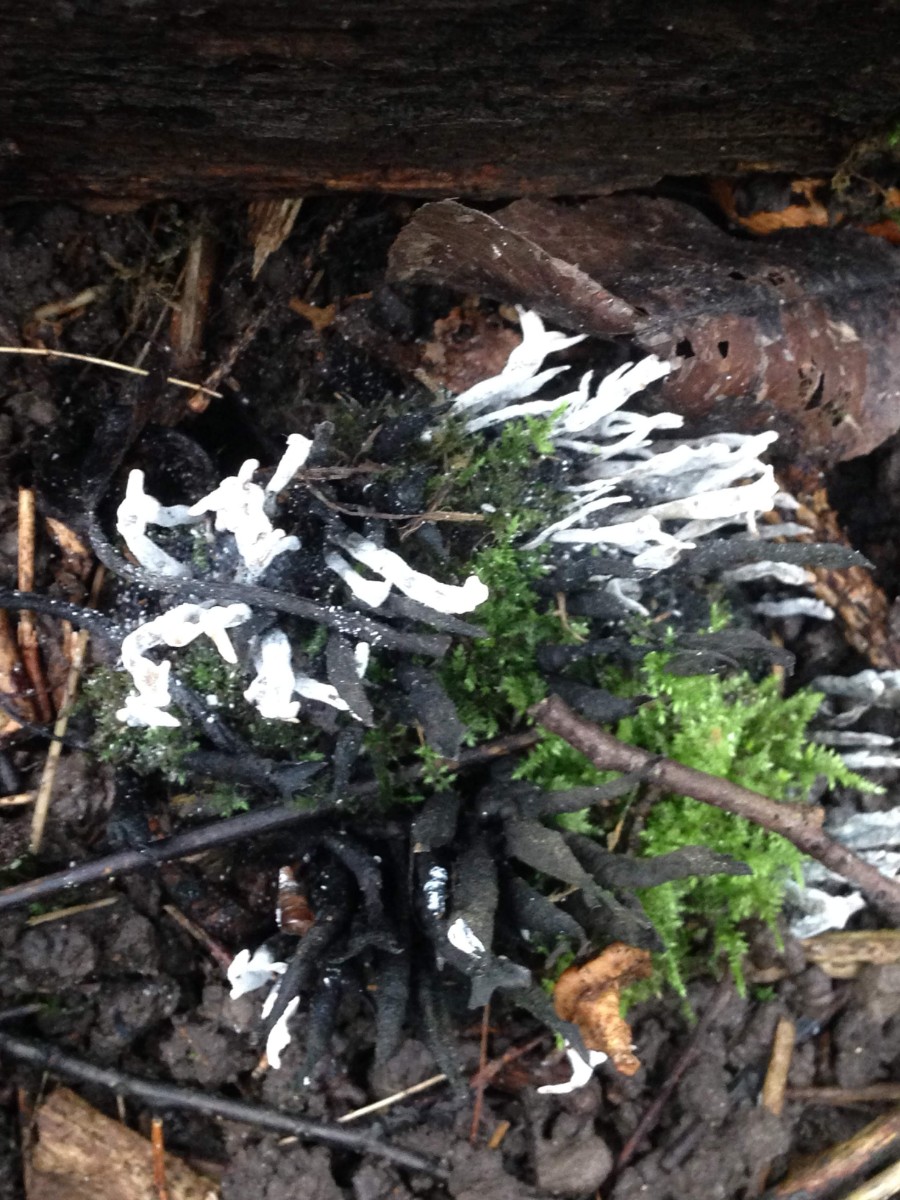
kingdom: Fungi
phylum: Ascomycota
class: Sordariomycetes
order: Xylariales
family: Xylariaceae
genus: Xylaria
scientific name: Xylaria hypoxylon
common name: grenet stødsvamp
